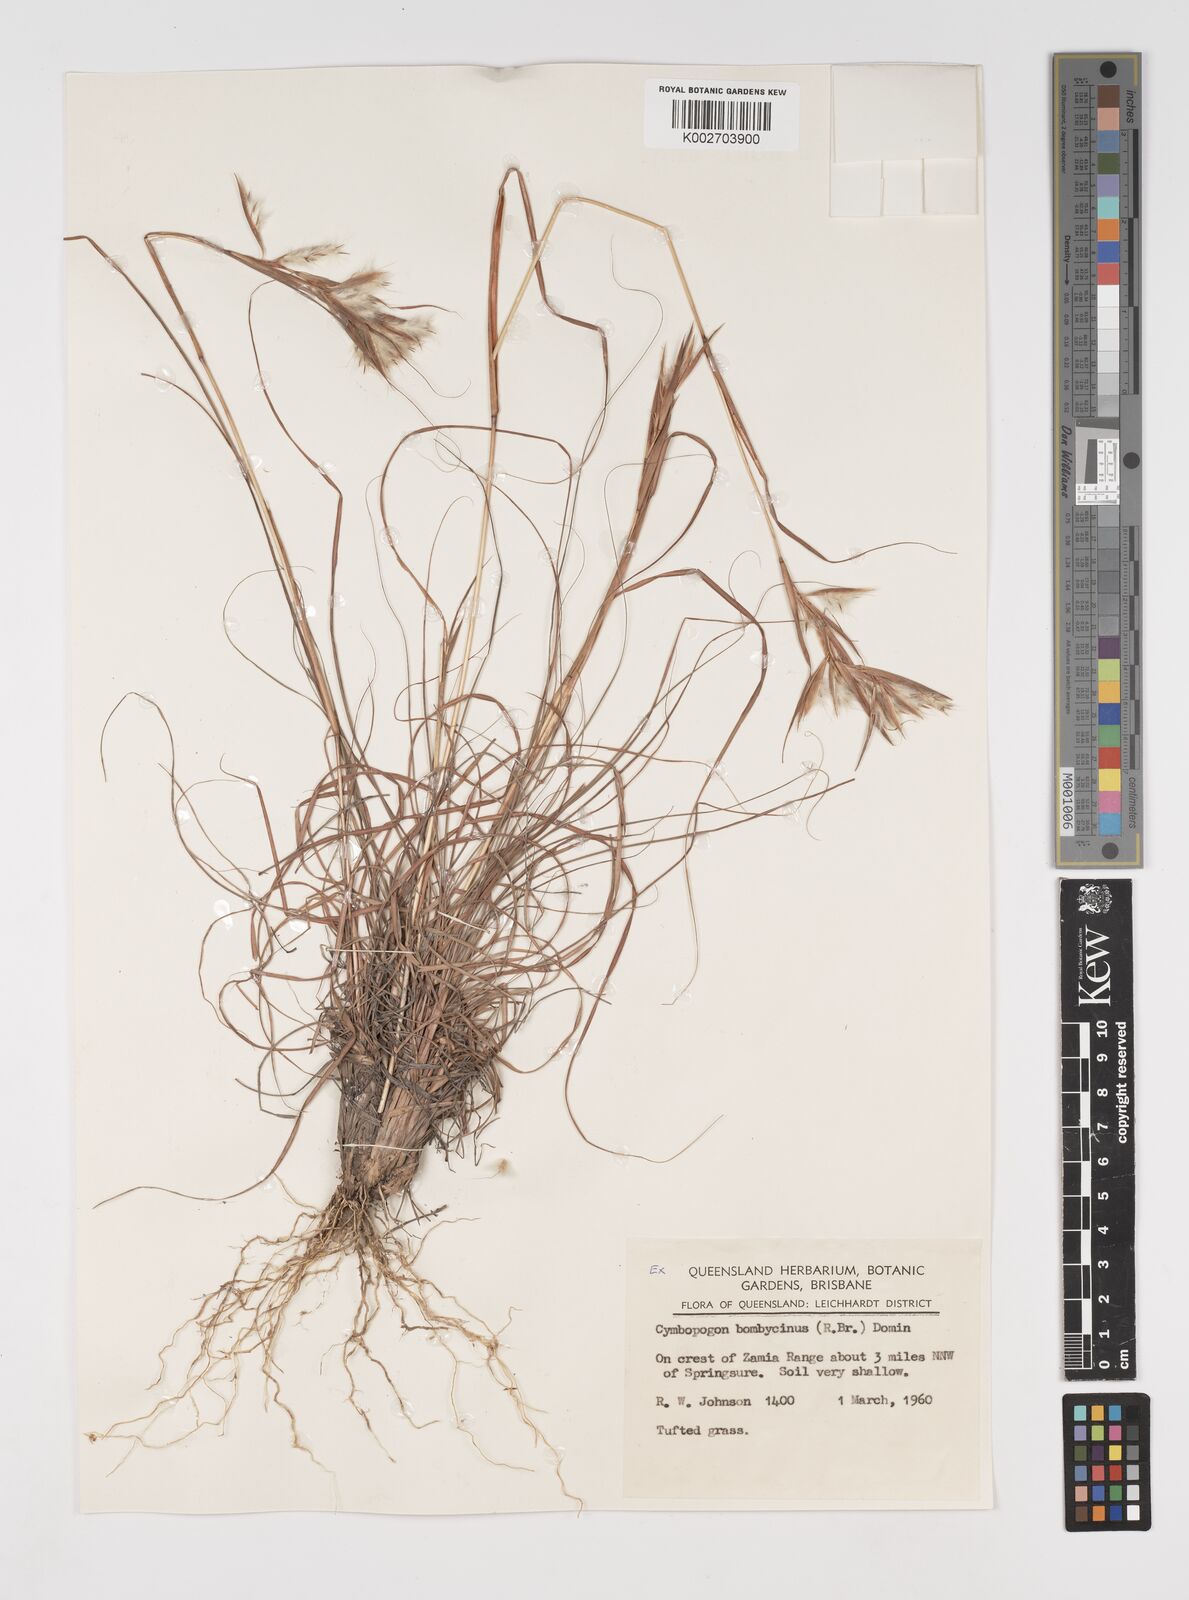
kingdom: Plantae
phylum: Tracheophyta
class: Liliopsida
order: Poales
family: Poaceae
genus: Cymbopogon
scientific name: Cymbopogon bombycinus
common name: Citronella grass
